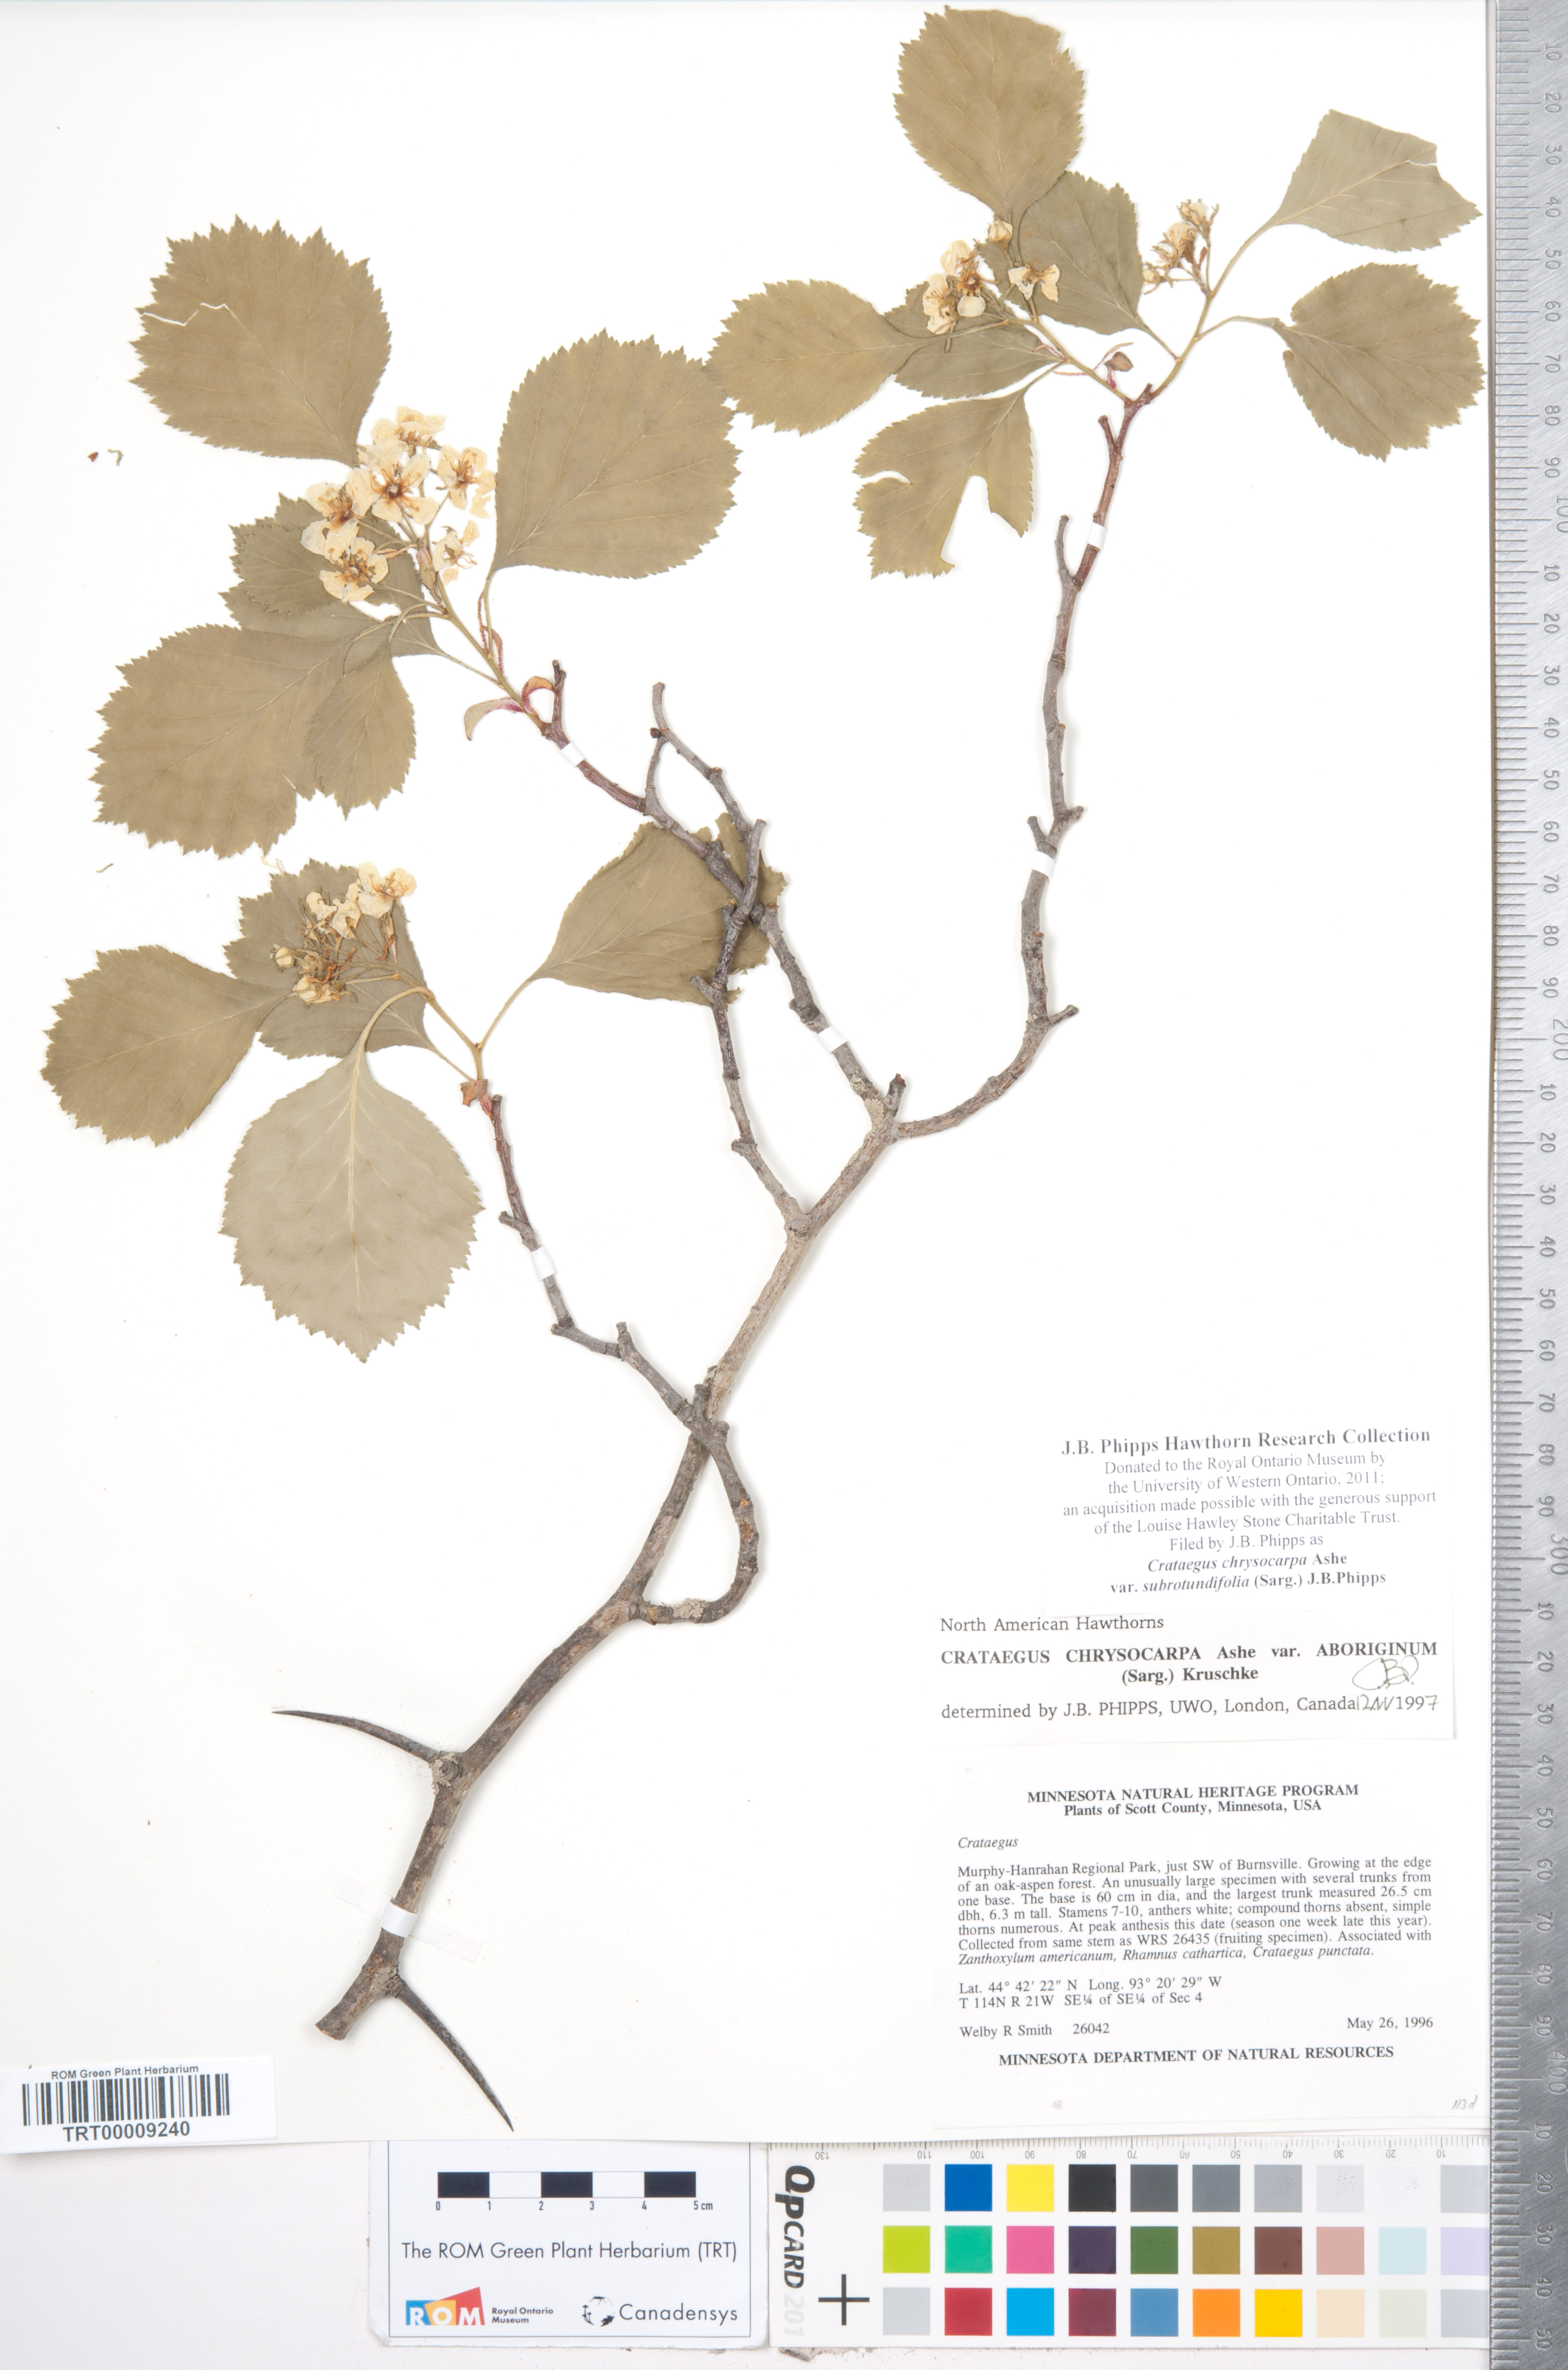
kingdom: Plantae
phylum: Tracheophyta
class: Magnoliopsida
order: Rosales
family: Rosaceae
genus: Crataegus
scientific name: Crataegus chrysocarpa
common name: Fire-berry hawthorn
